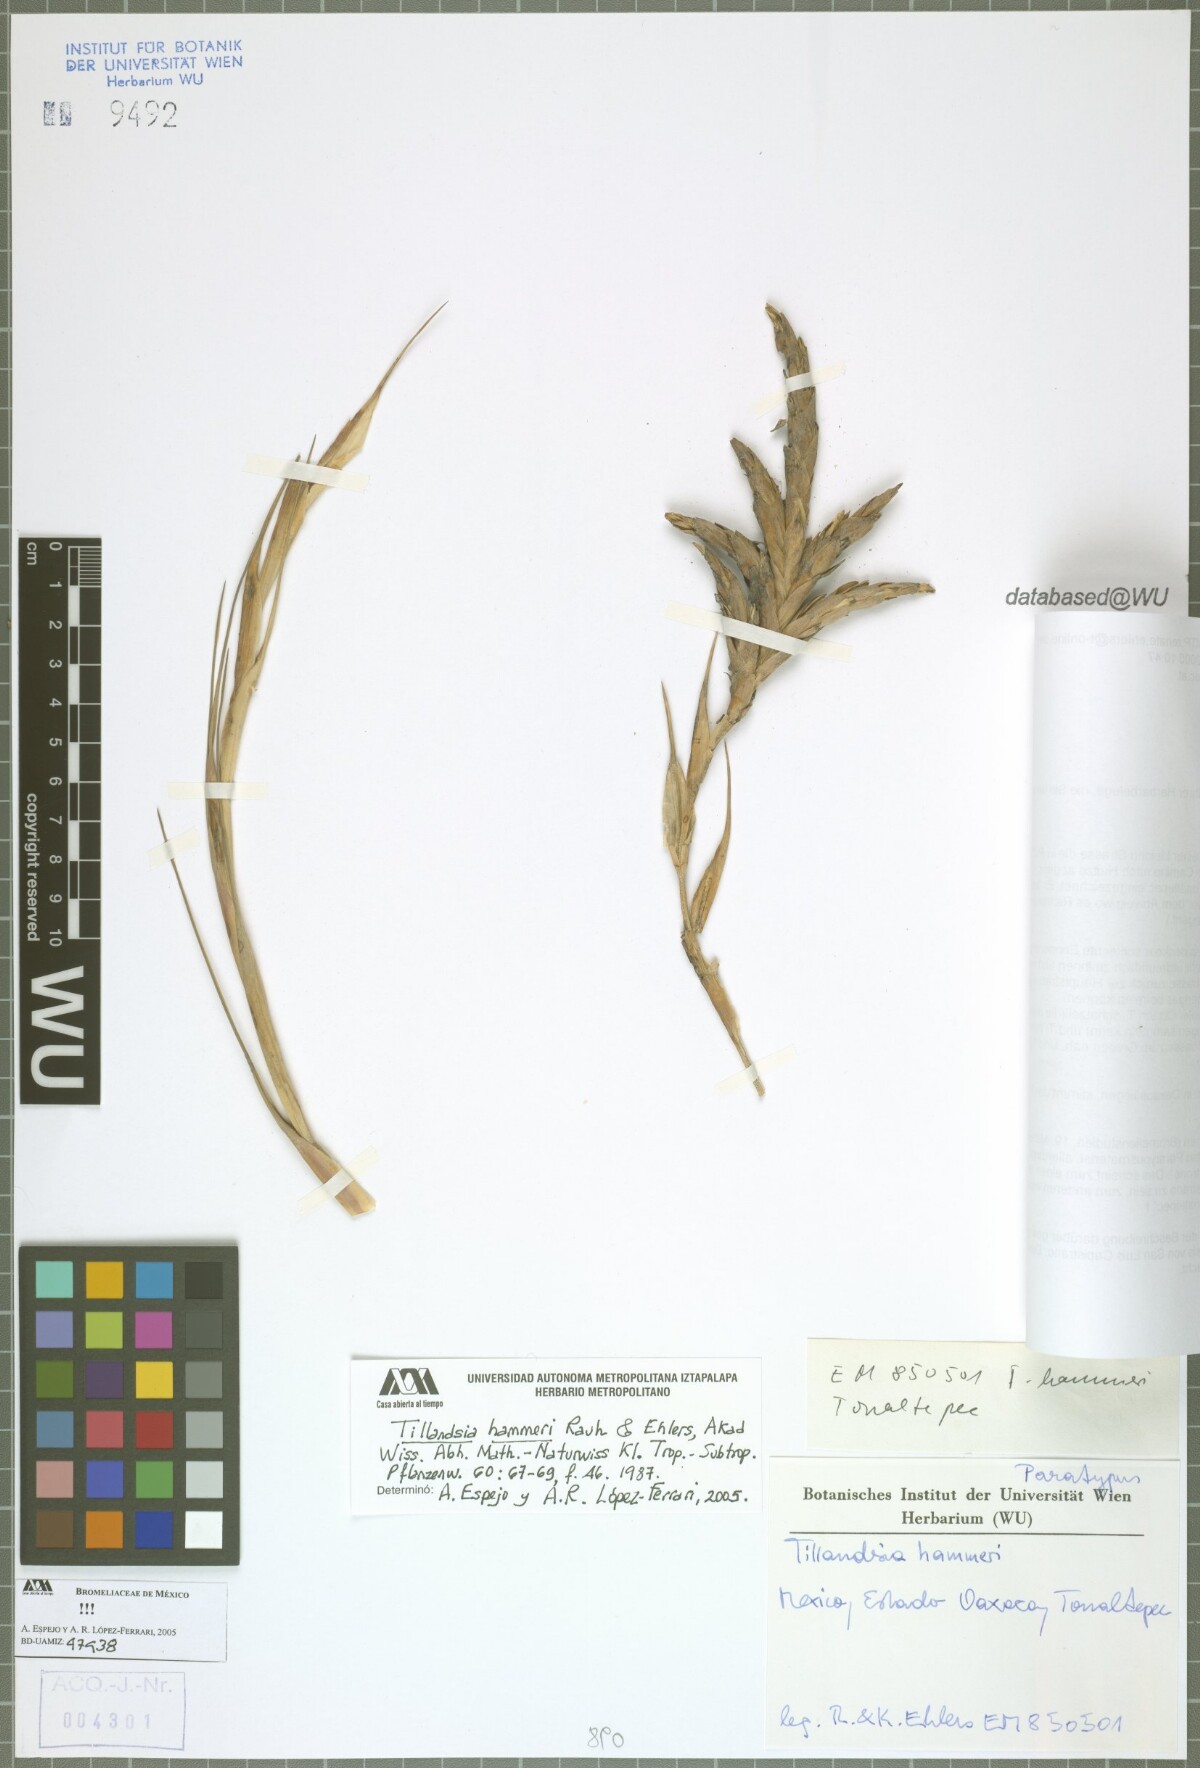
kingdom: Plantae
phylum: Tracheophyta
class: Liliopsida
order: Poales
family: Bromeliaceae
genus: Tillandsia
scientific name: Tillandsia hammeri
